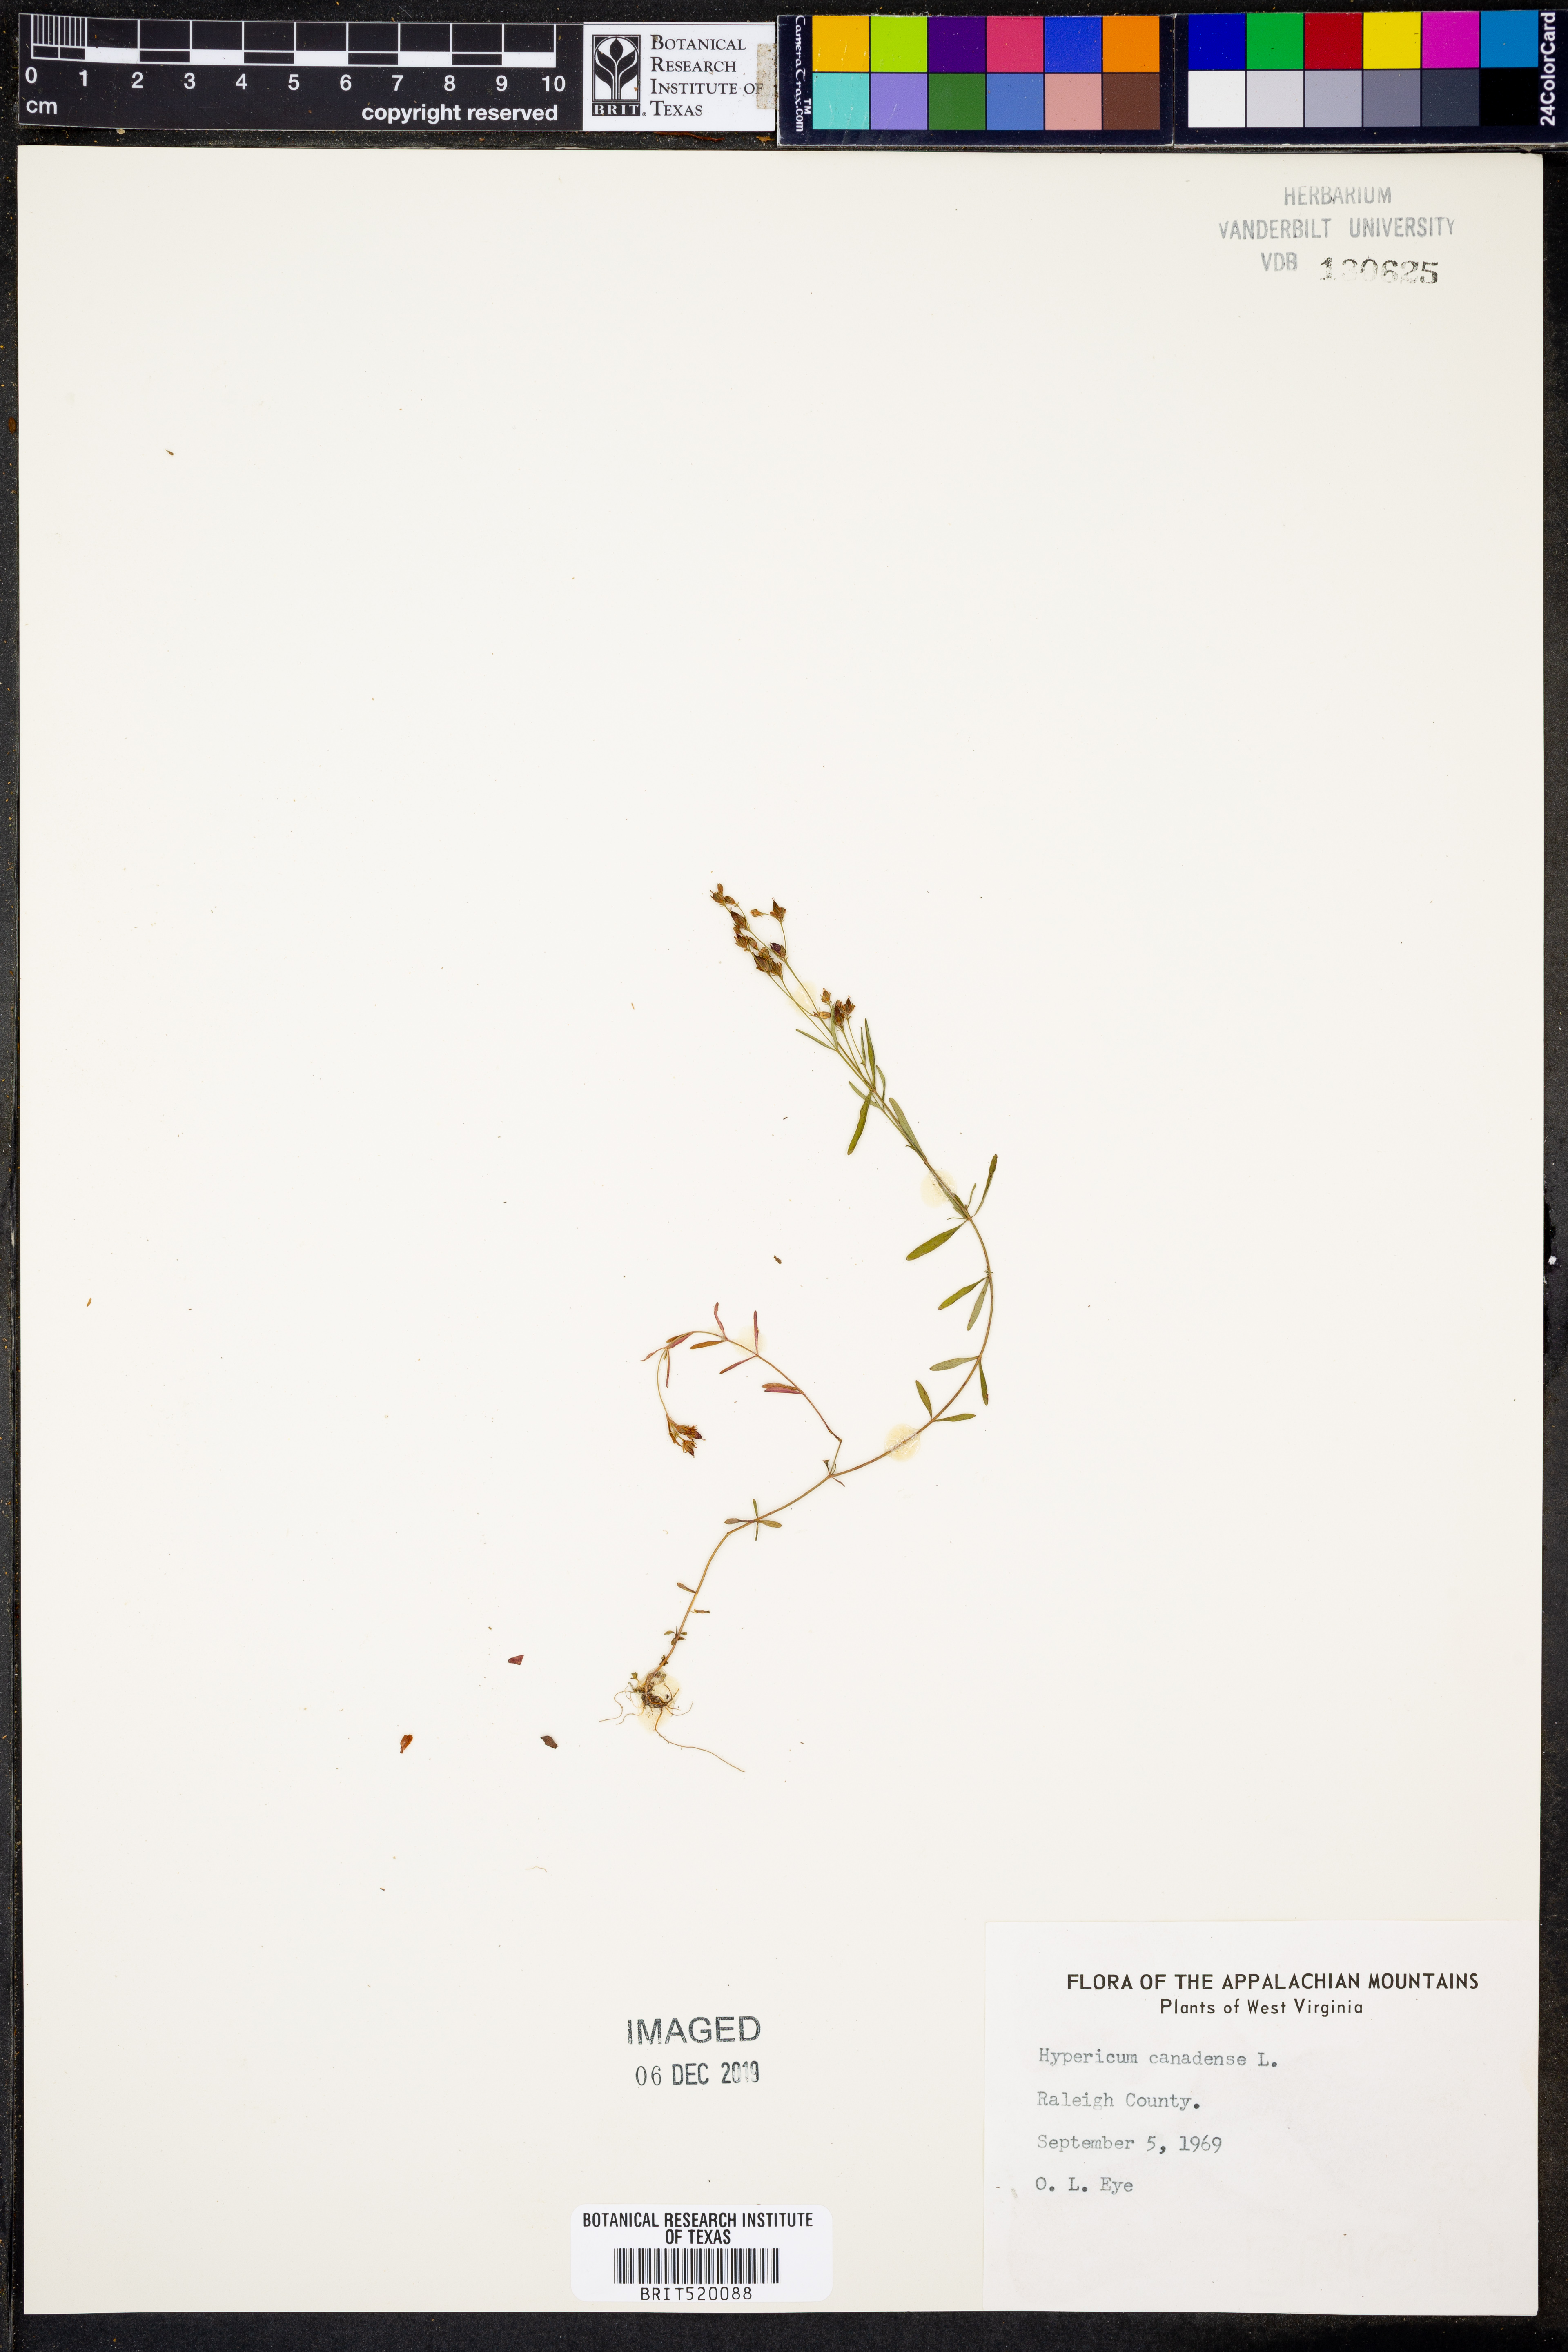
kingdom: Plantae
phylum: Tracheophyta
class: Magnoliopsida
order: Malpighiales
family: Hypericaceae
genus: Hypericum
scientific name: Hypericum canadense
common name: Irish st. john's-wort
